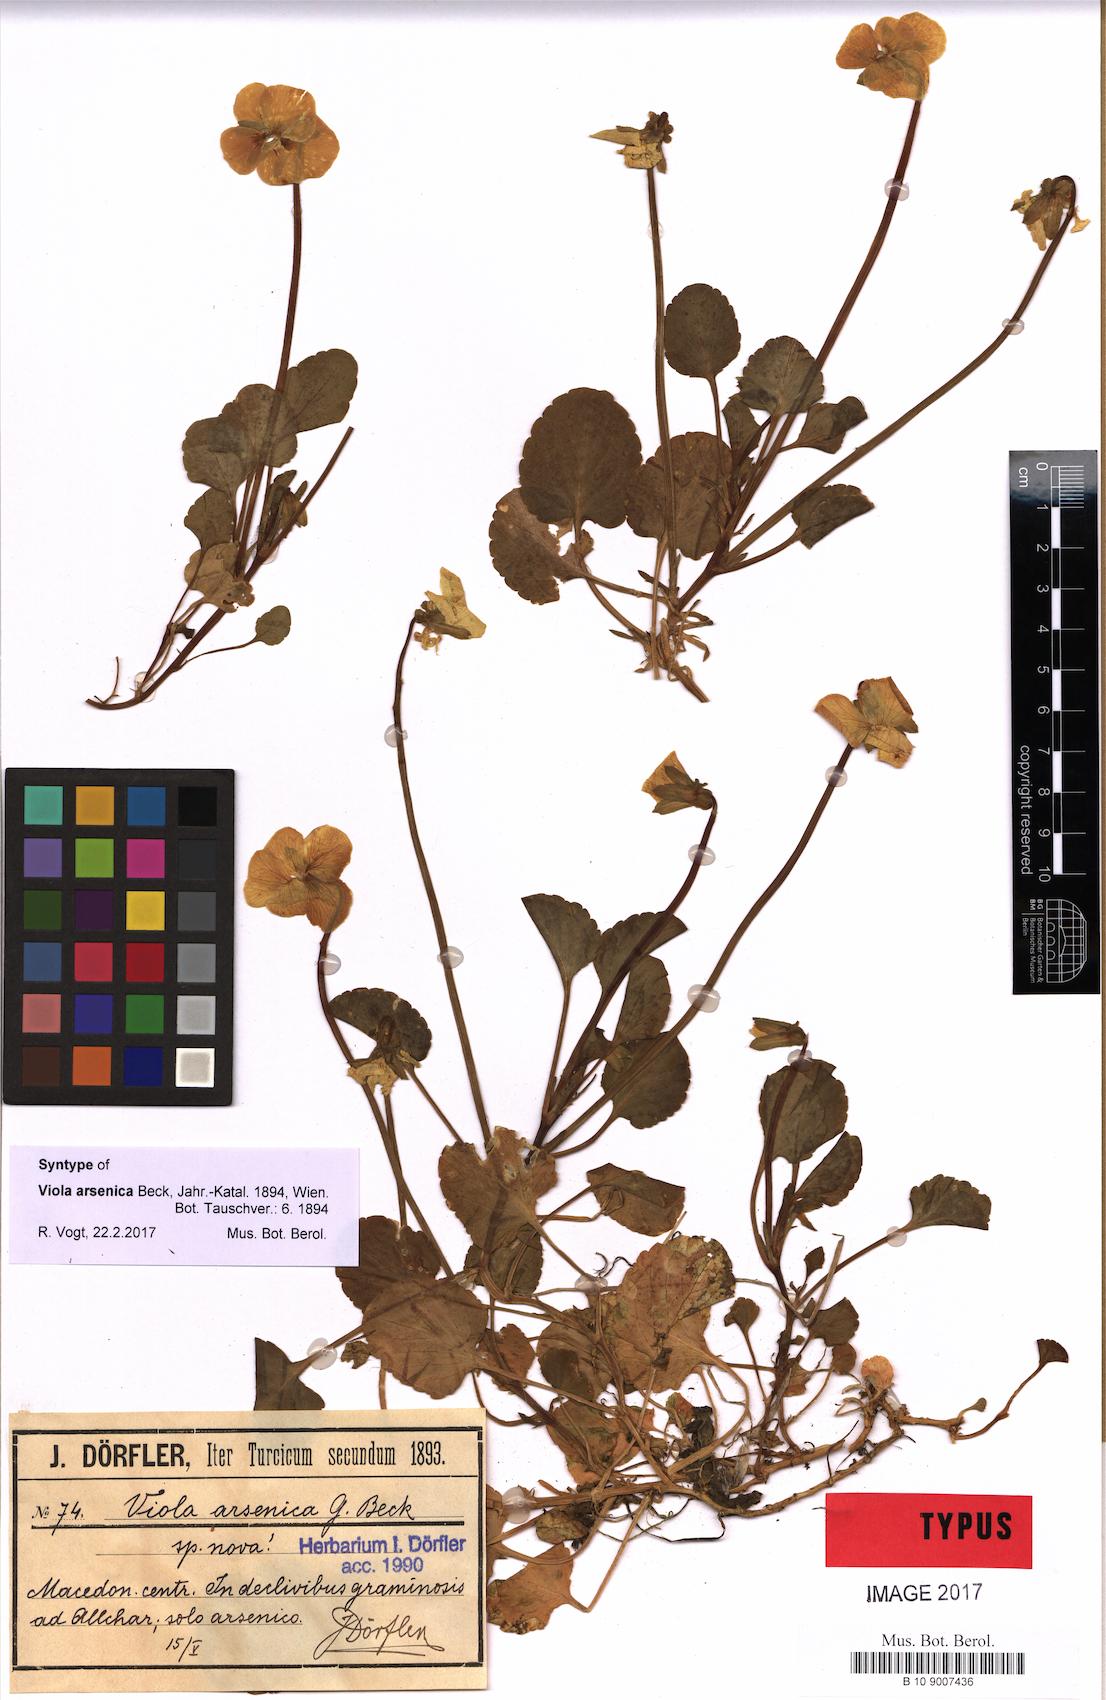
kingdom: Plantae
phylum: Tracheophyta
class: Magnoliopsida
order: Malpighiales
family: Violaceae
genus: Viola
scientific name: Viola arsenica
